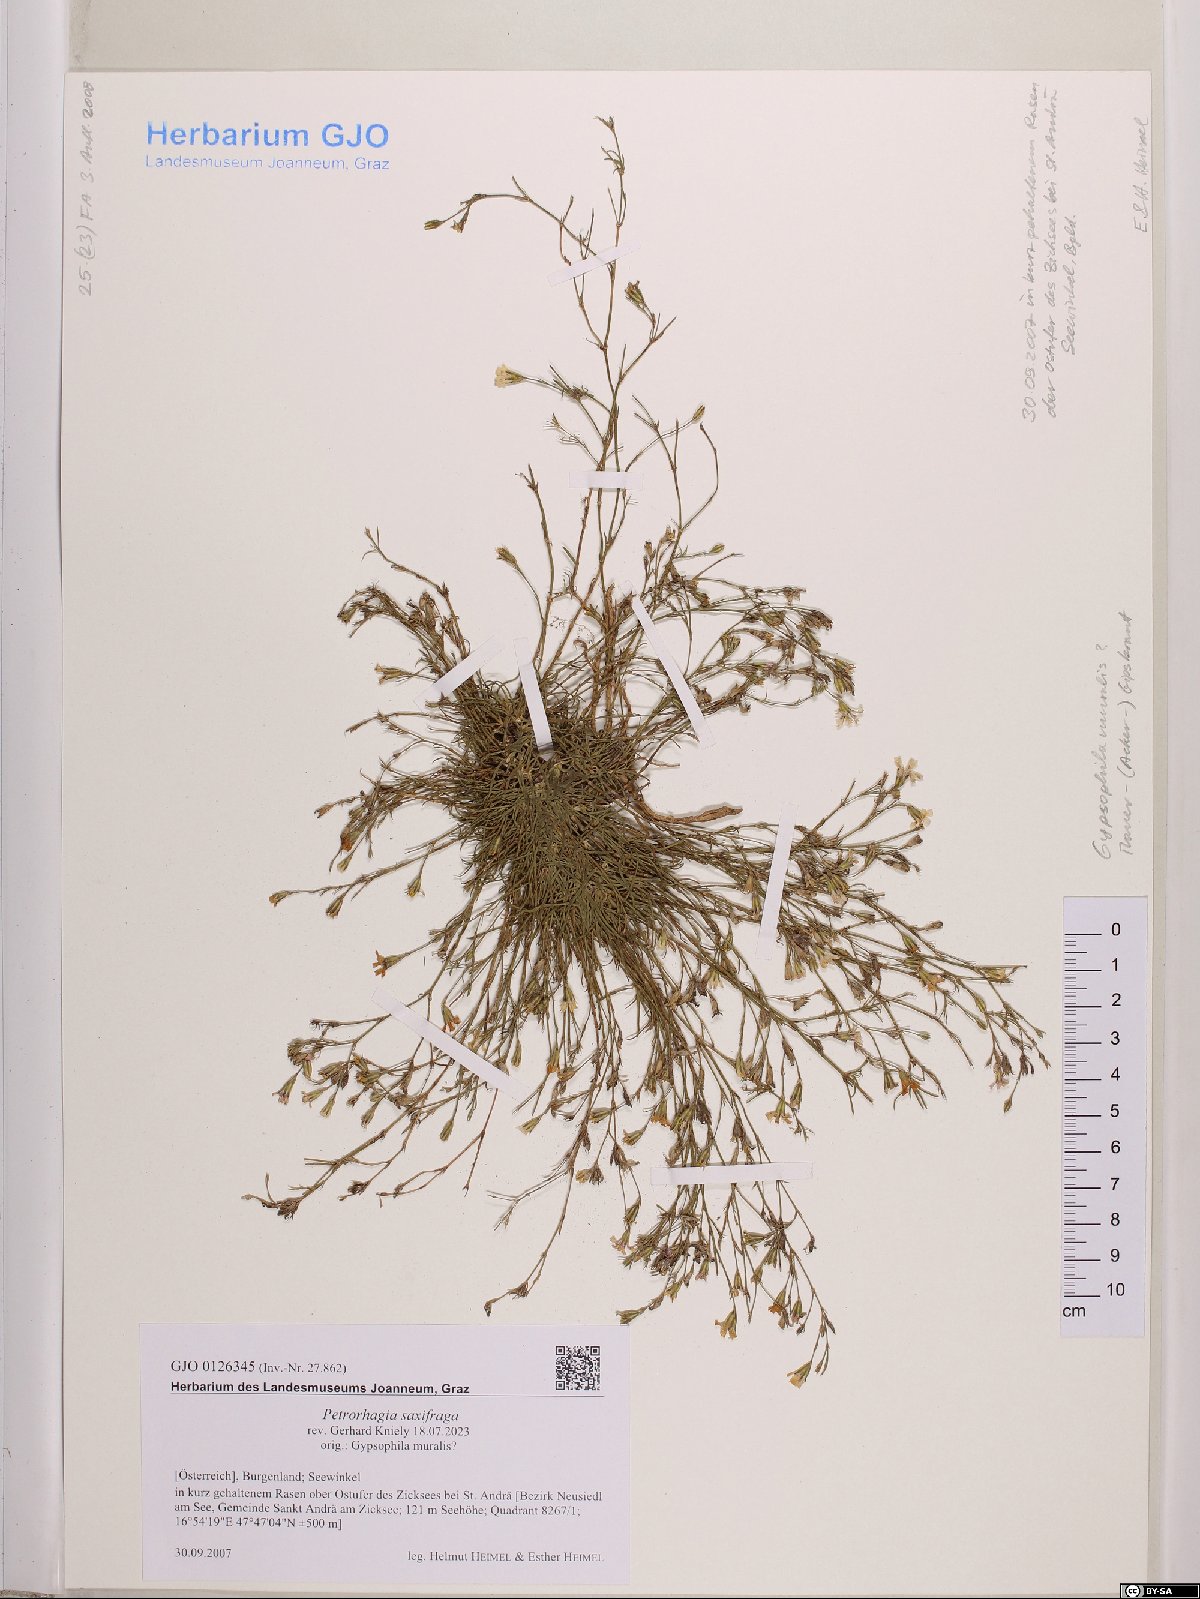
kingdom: Plantae
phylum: Tracheophyta
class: Magnoliopsida
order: Caryophyllales
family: Caryophyllaceae
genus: Petrorhagia
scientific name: Petrorhagia saxifraga
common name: Tunicflower
